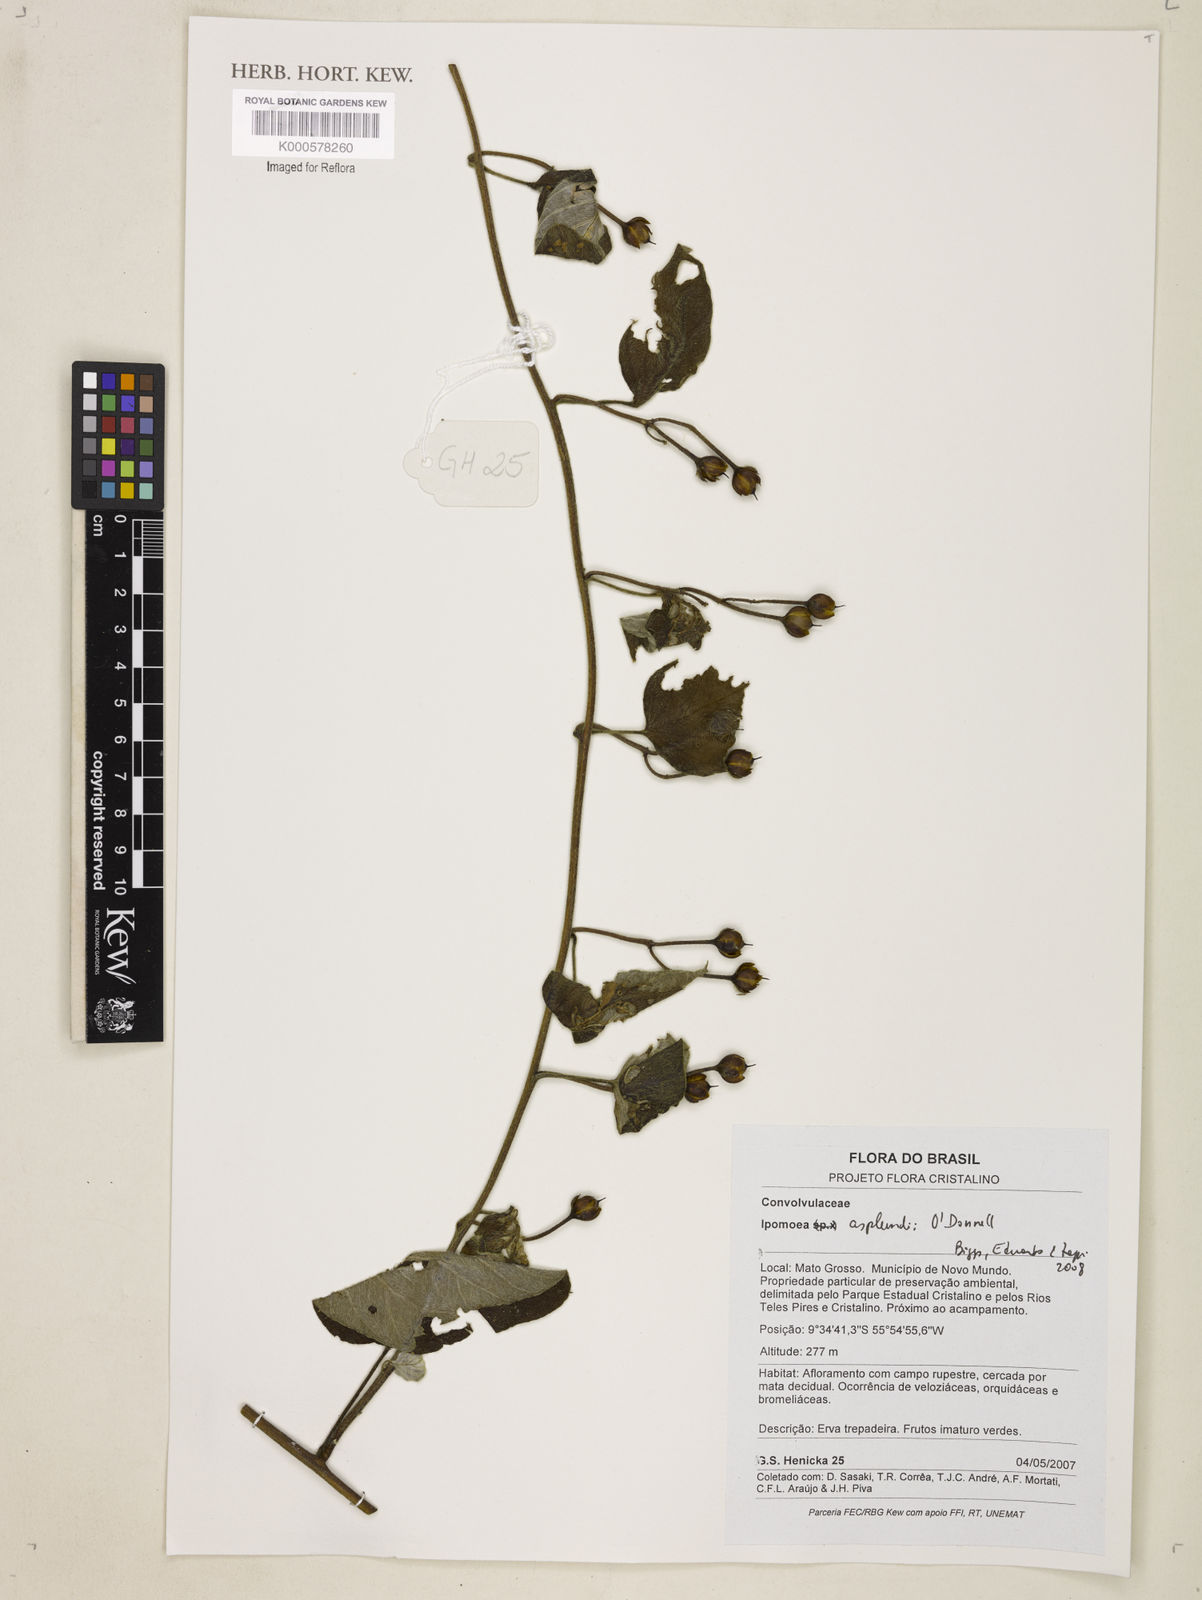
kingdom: Plantae
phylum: Tracheophyta
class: Magnoliopsida
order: Solanales
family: Convolvulaceae
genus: Ipomoea
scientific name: Ipomoea asplundii
